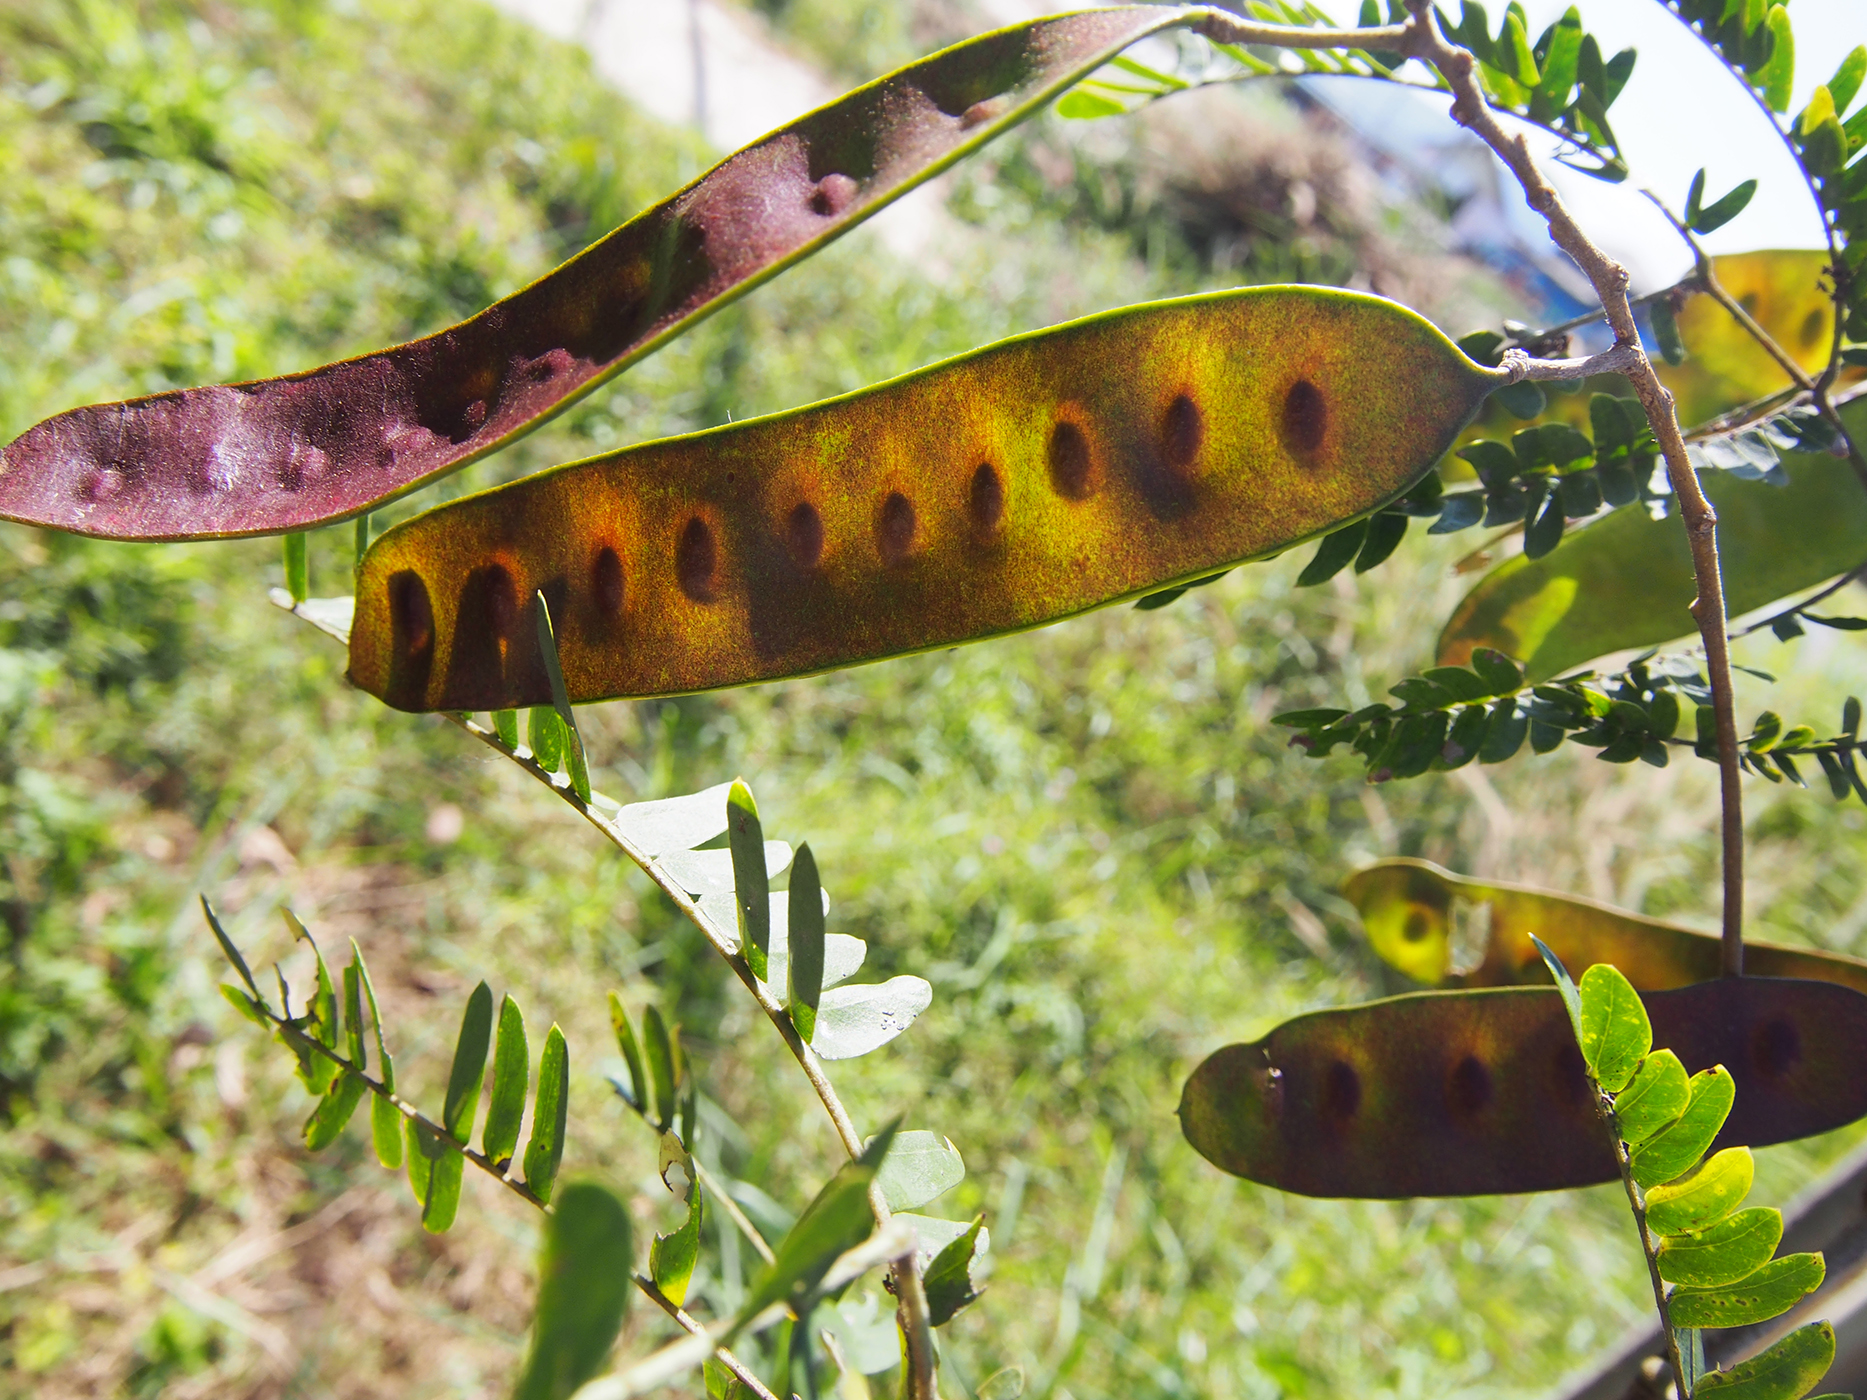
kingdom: Plantae
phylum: Tracheophyta
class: Magnoliopsida
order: Fabales
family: Fabaceae
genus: Albizia
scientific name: Albizia lebbekoides
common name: Indian albizia
